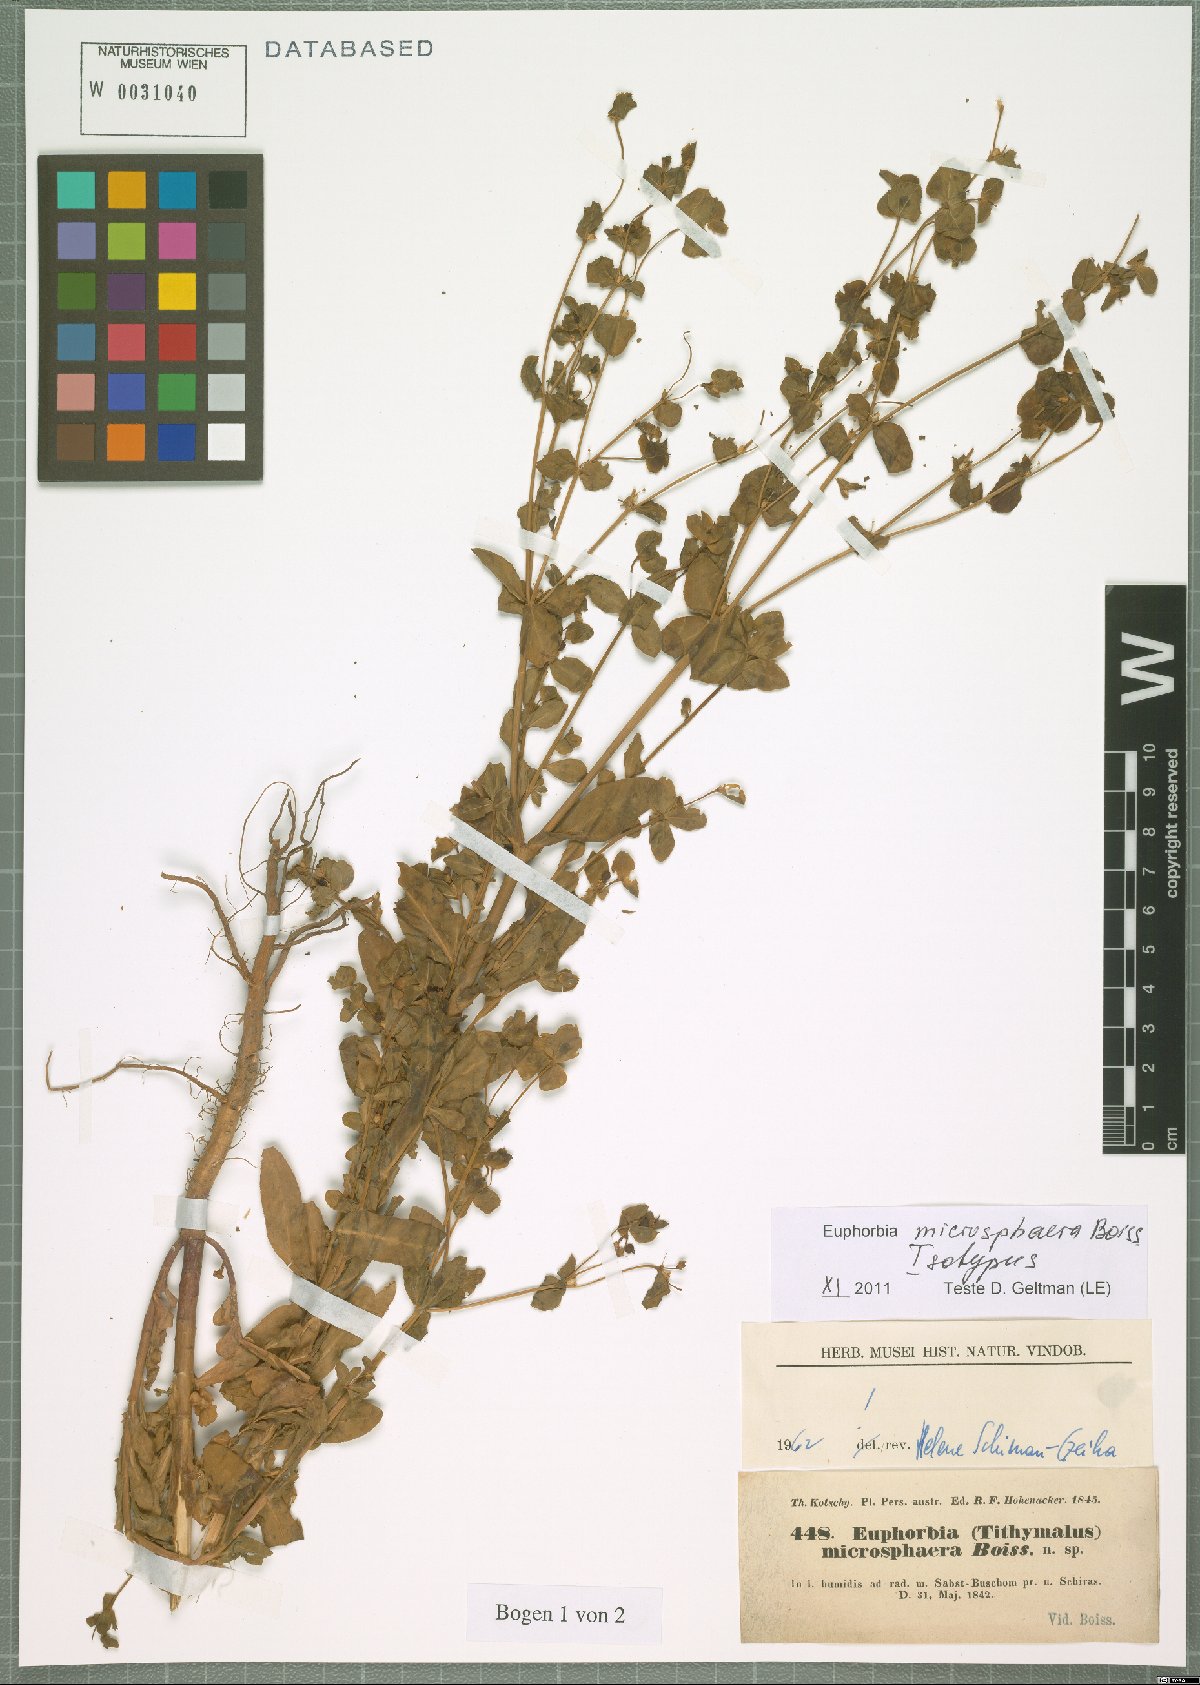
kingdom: Plantae
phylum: Tracheophyta
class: Magnoliopsida
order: Malpighiales
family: Euphorbiaceae
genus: Euphorbia
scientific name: Euphorbia microsphaera
